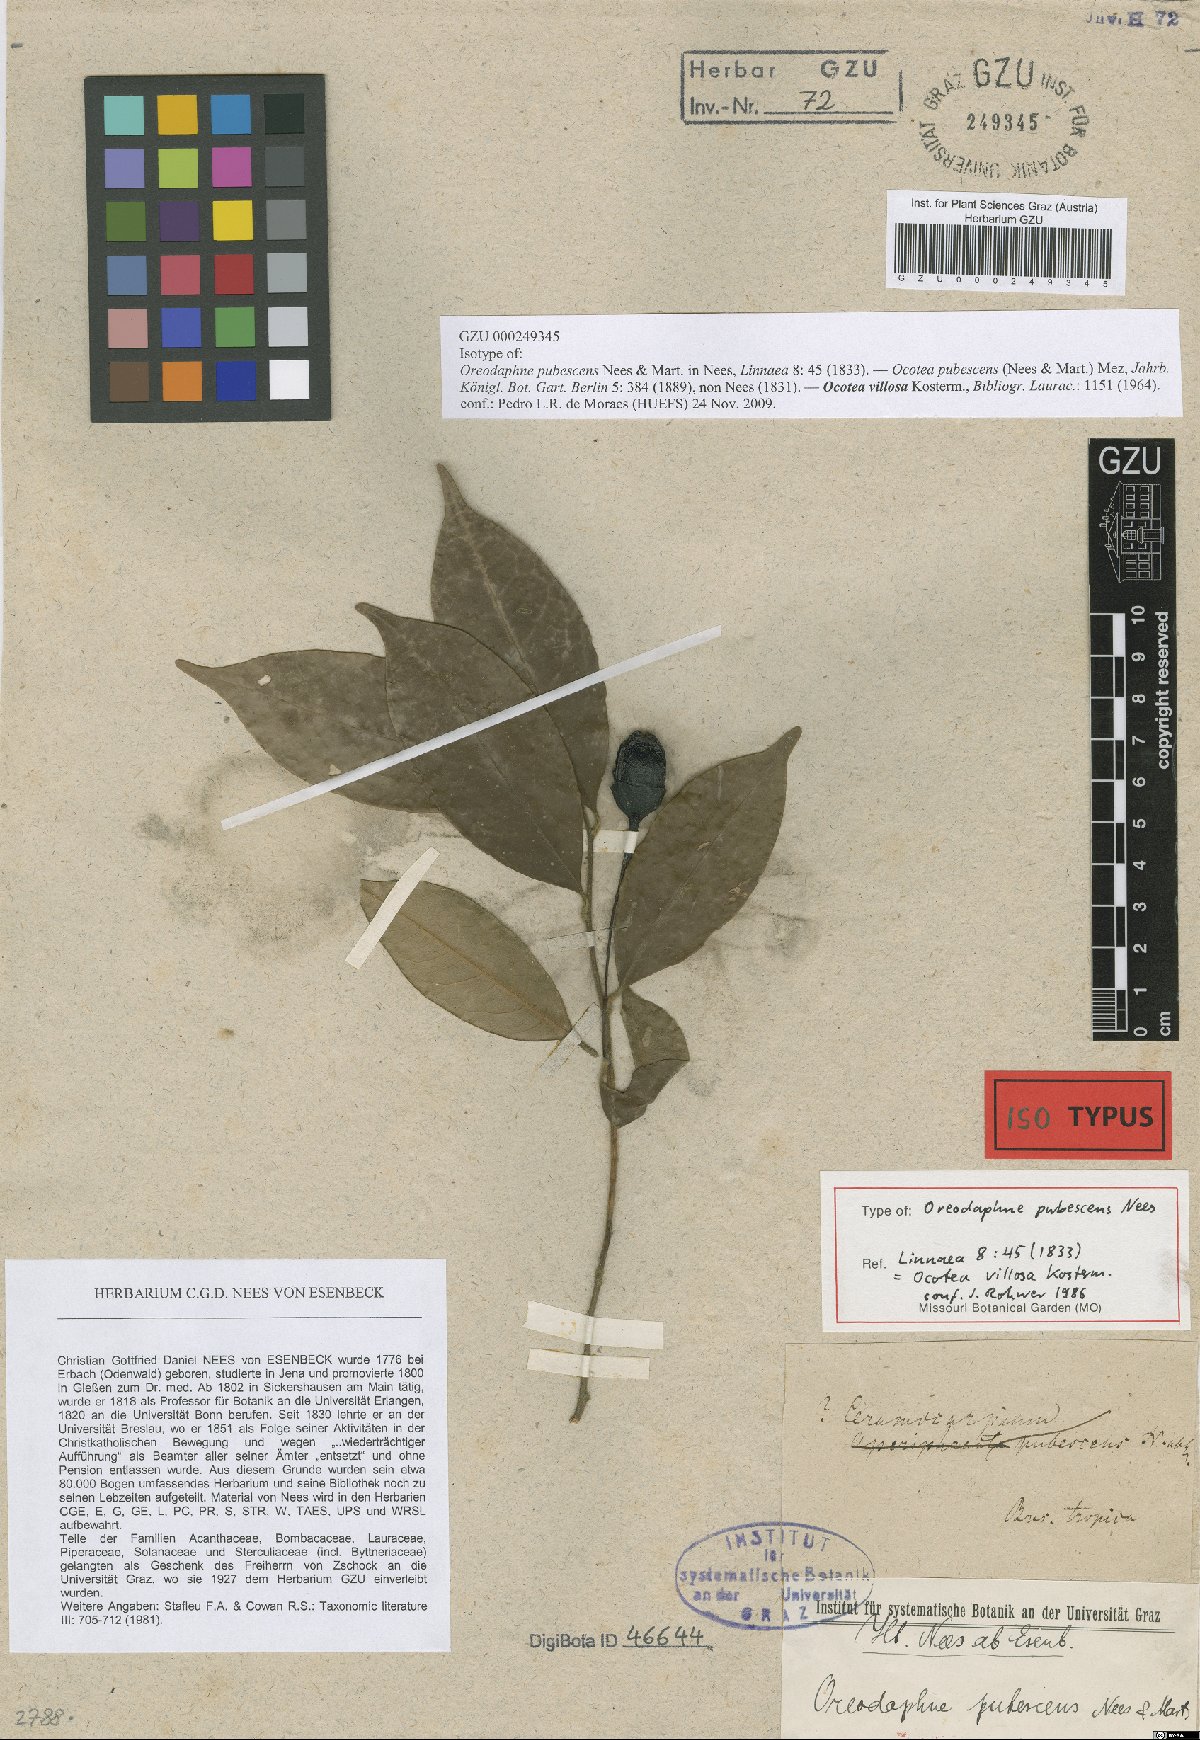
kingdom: Plantae
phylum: Tracheophyta
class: Magnoliopsida
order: Laurales
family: Lauraceae
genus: Ocotea
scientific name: Ocotea villosa
